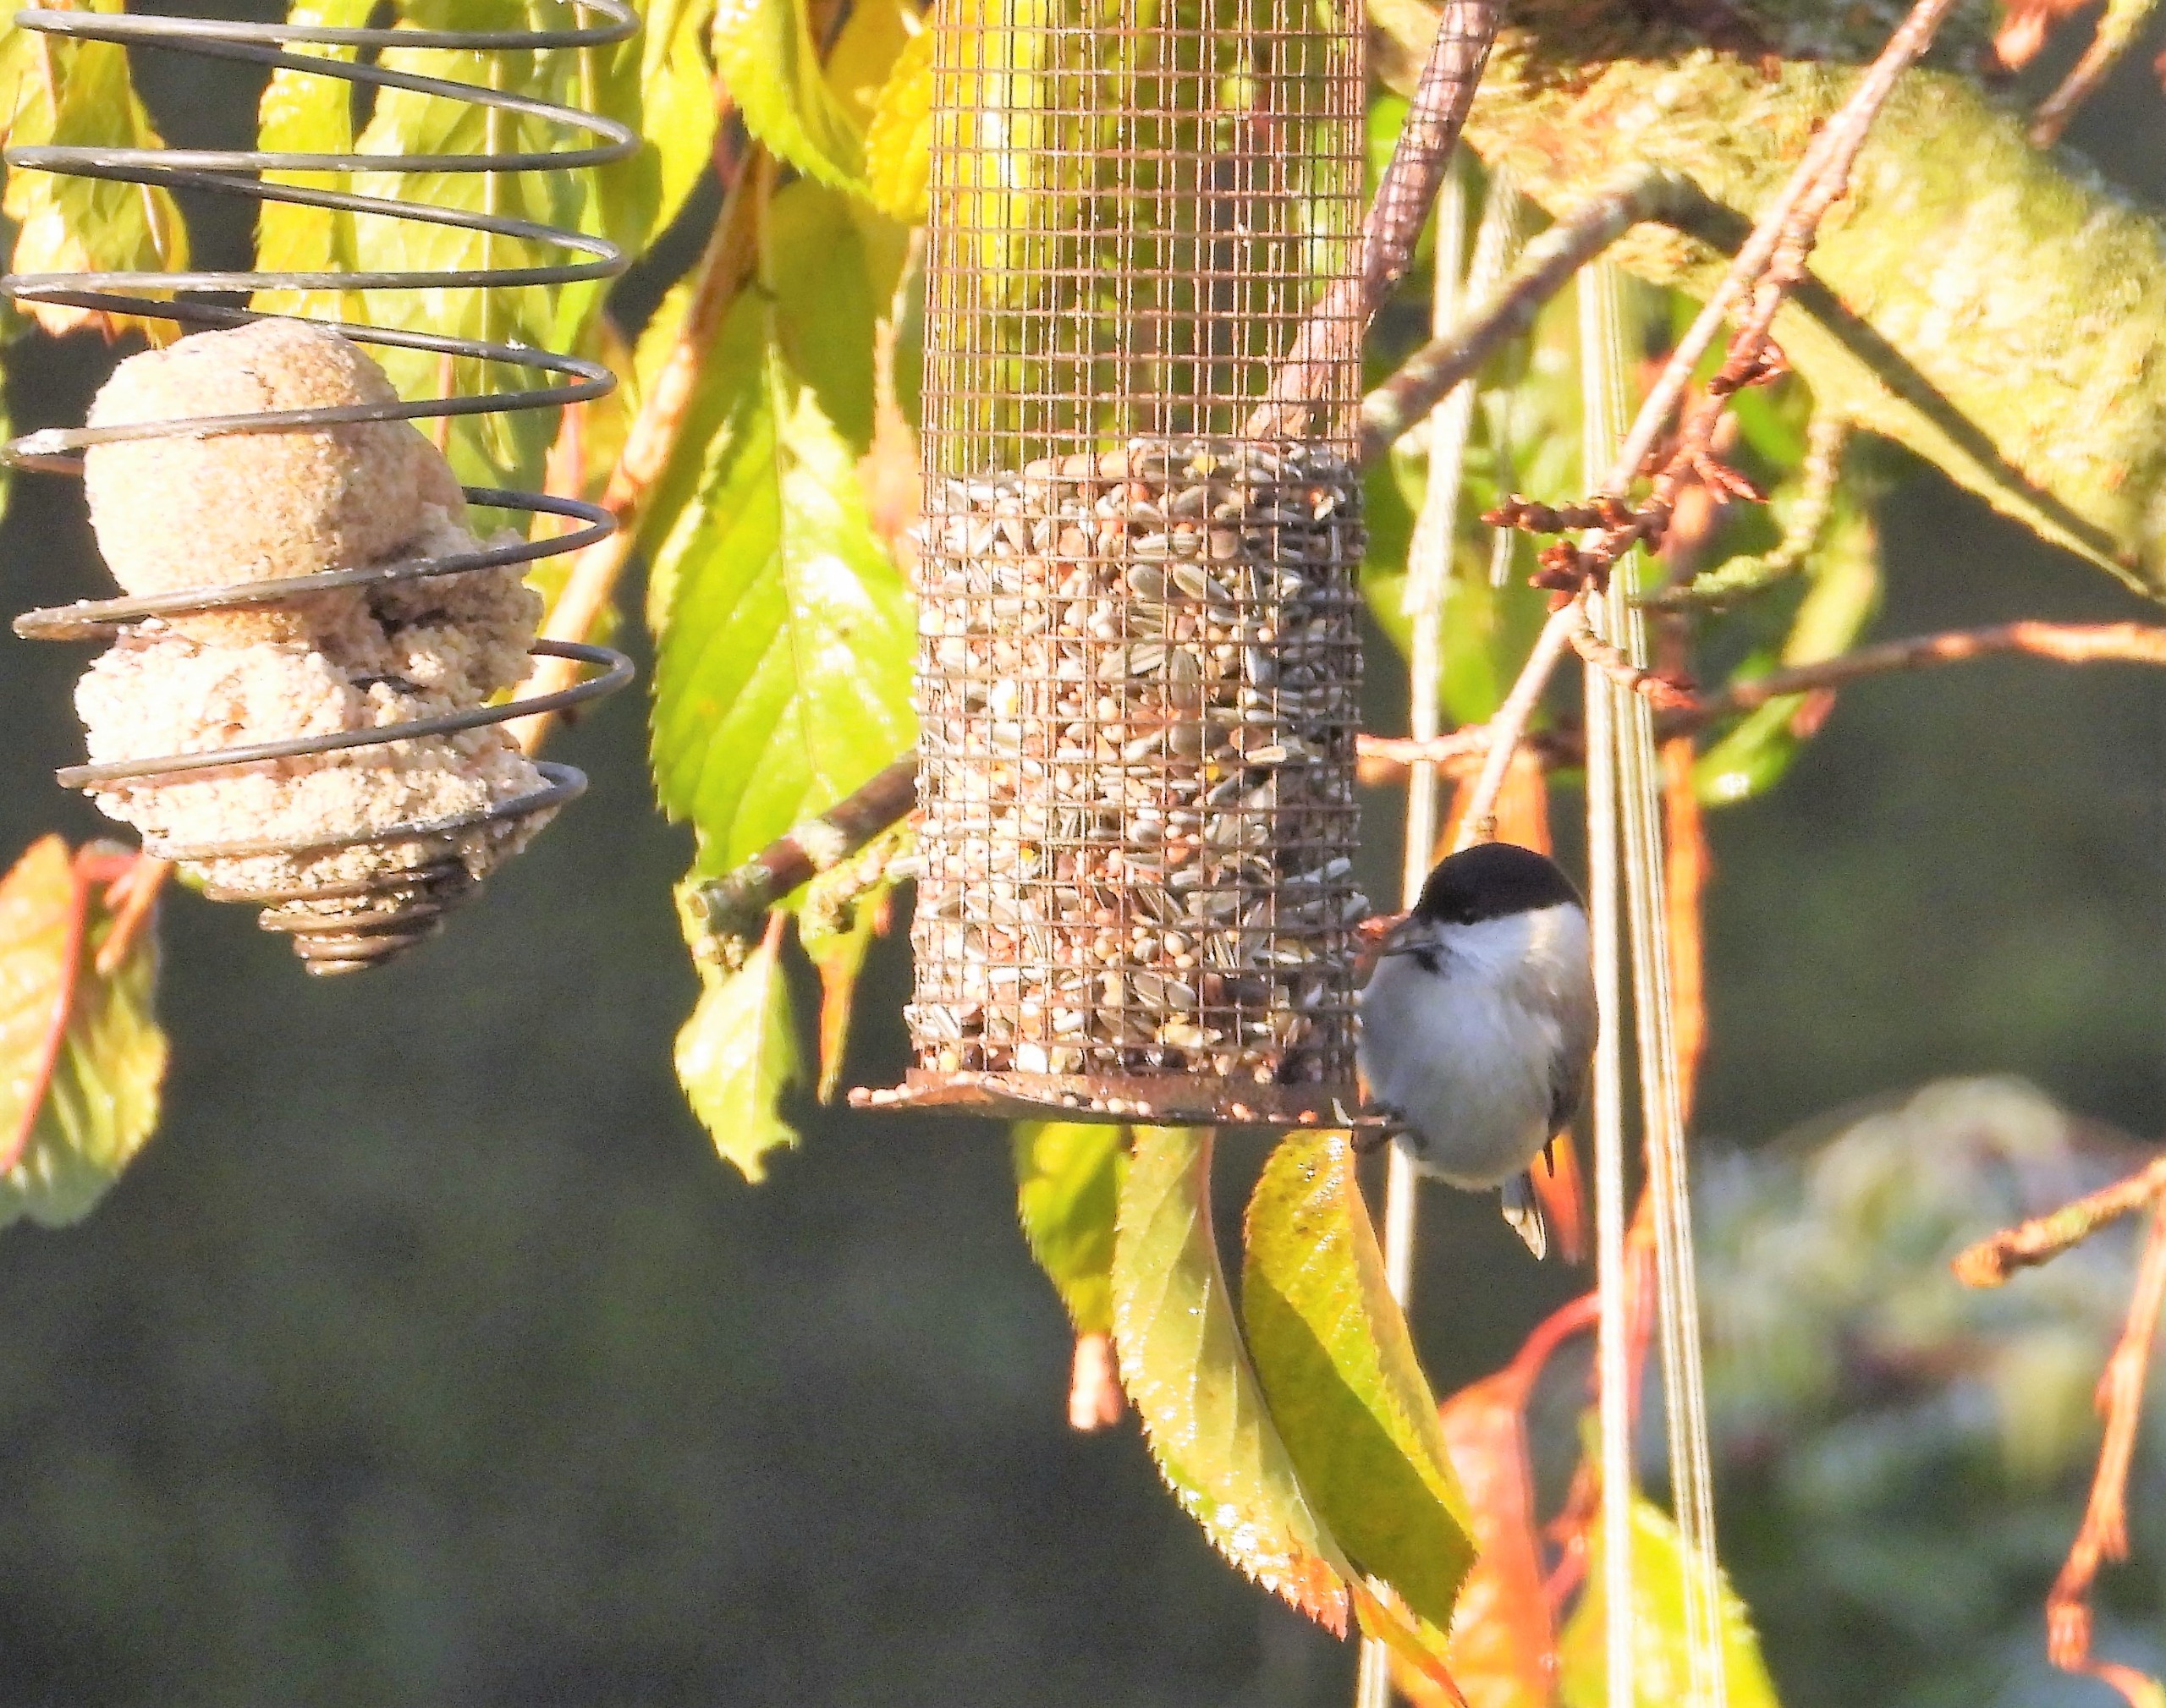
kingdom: Animalia
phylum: Chordata
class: Aves
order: Passeriformes
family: Paridae
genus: Poecile
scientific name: Poecile palustris
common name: Sumpmejse
